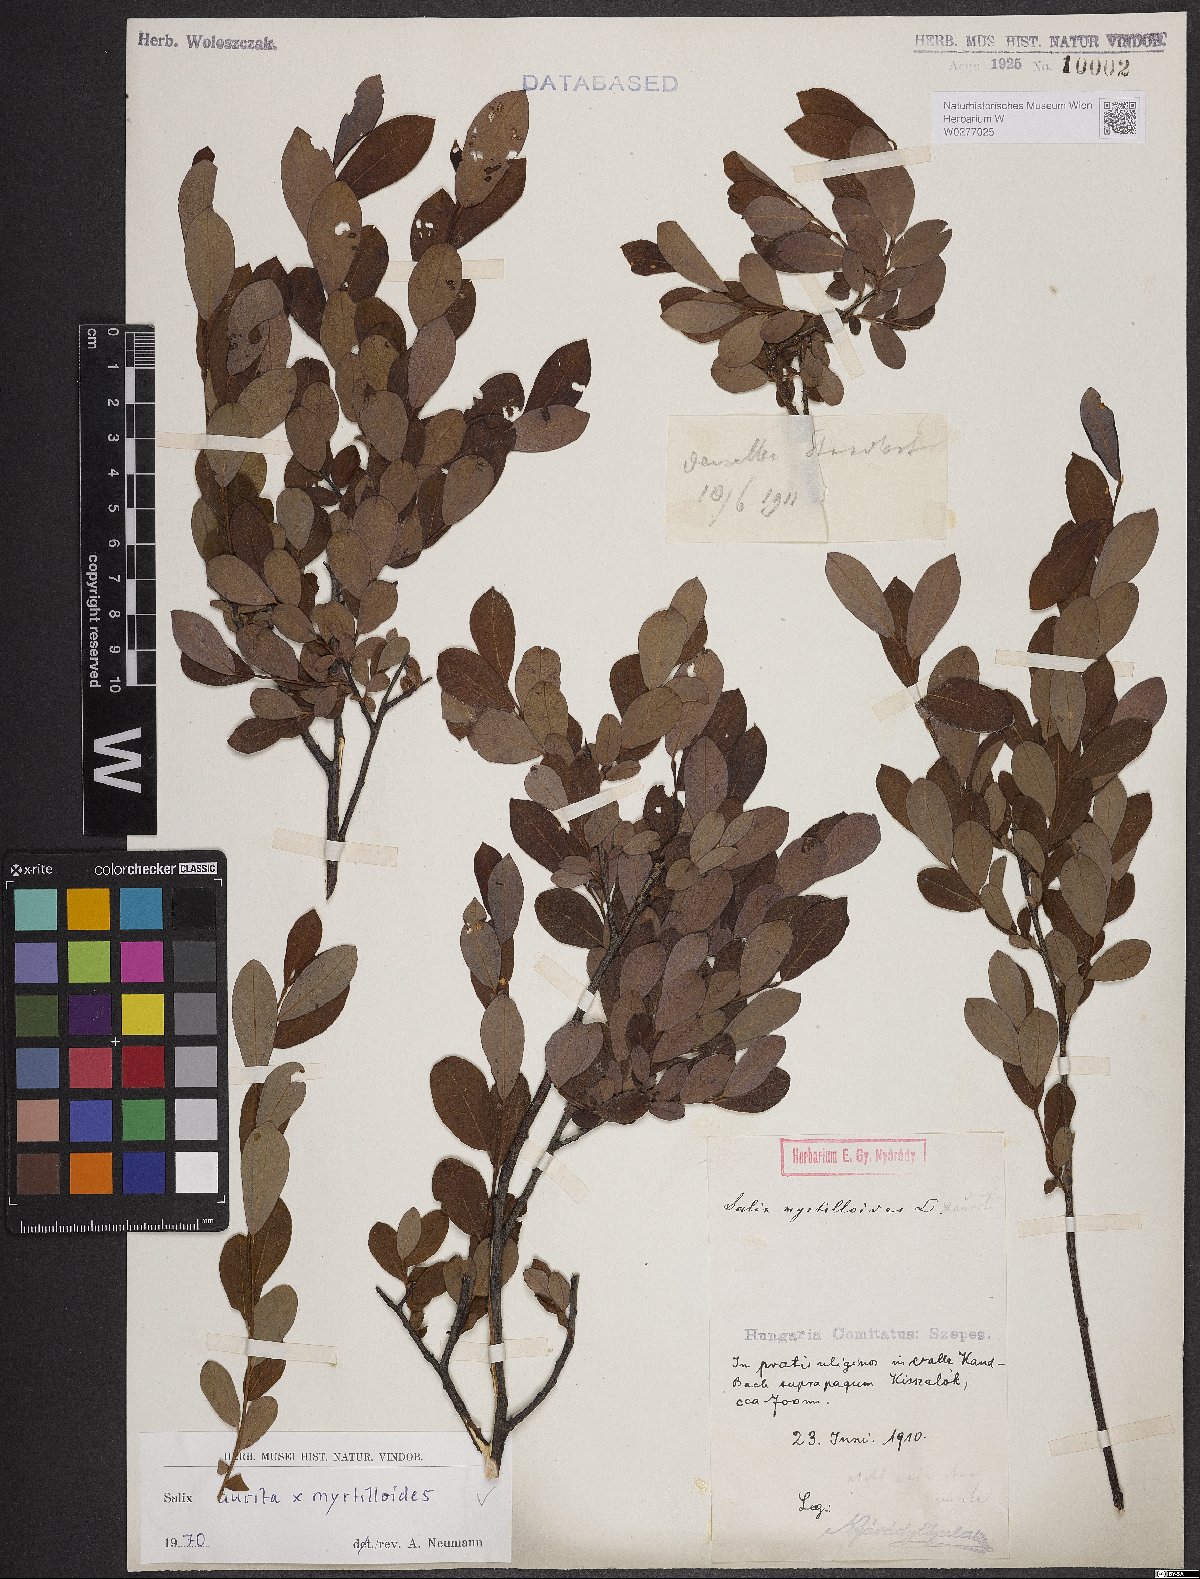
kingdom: Plantae
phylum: Tracheophyta
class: Magnoliopsida
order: Malpighiales
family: Salicaceae
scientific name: Salicaceae
